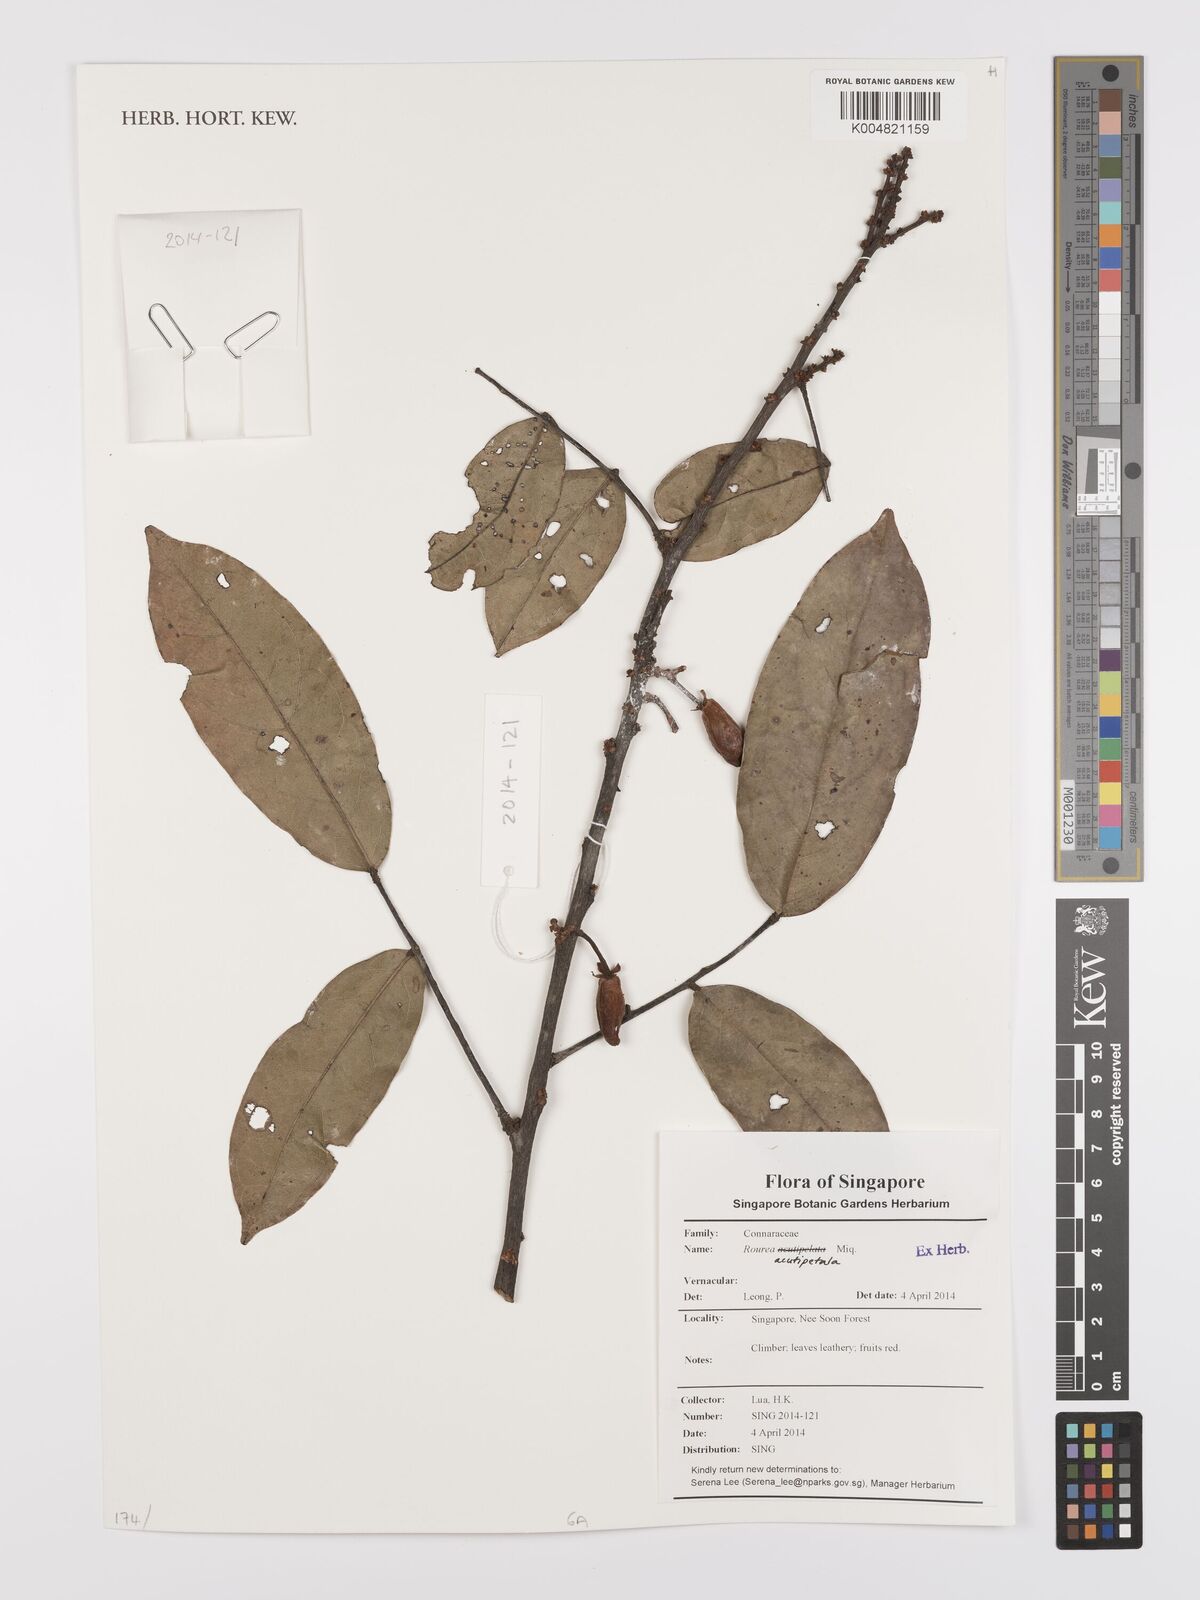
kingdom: Plantae
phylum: Tracheophyta
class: Magnoliopsida
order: Oxalidales
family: Connaraceae
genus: Rourea
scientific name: Rourea acutipetala
